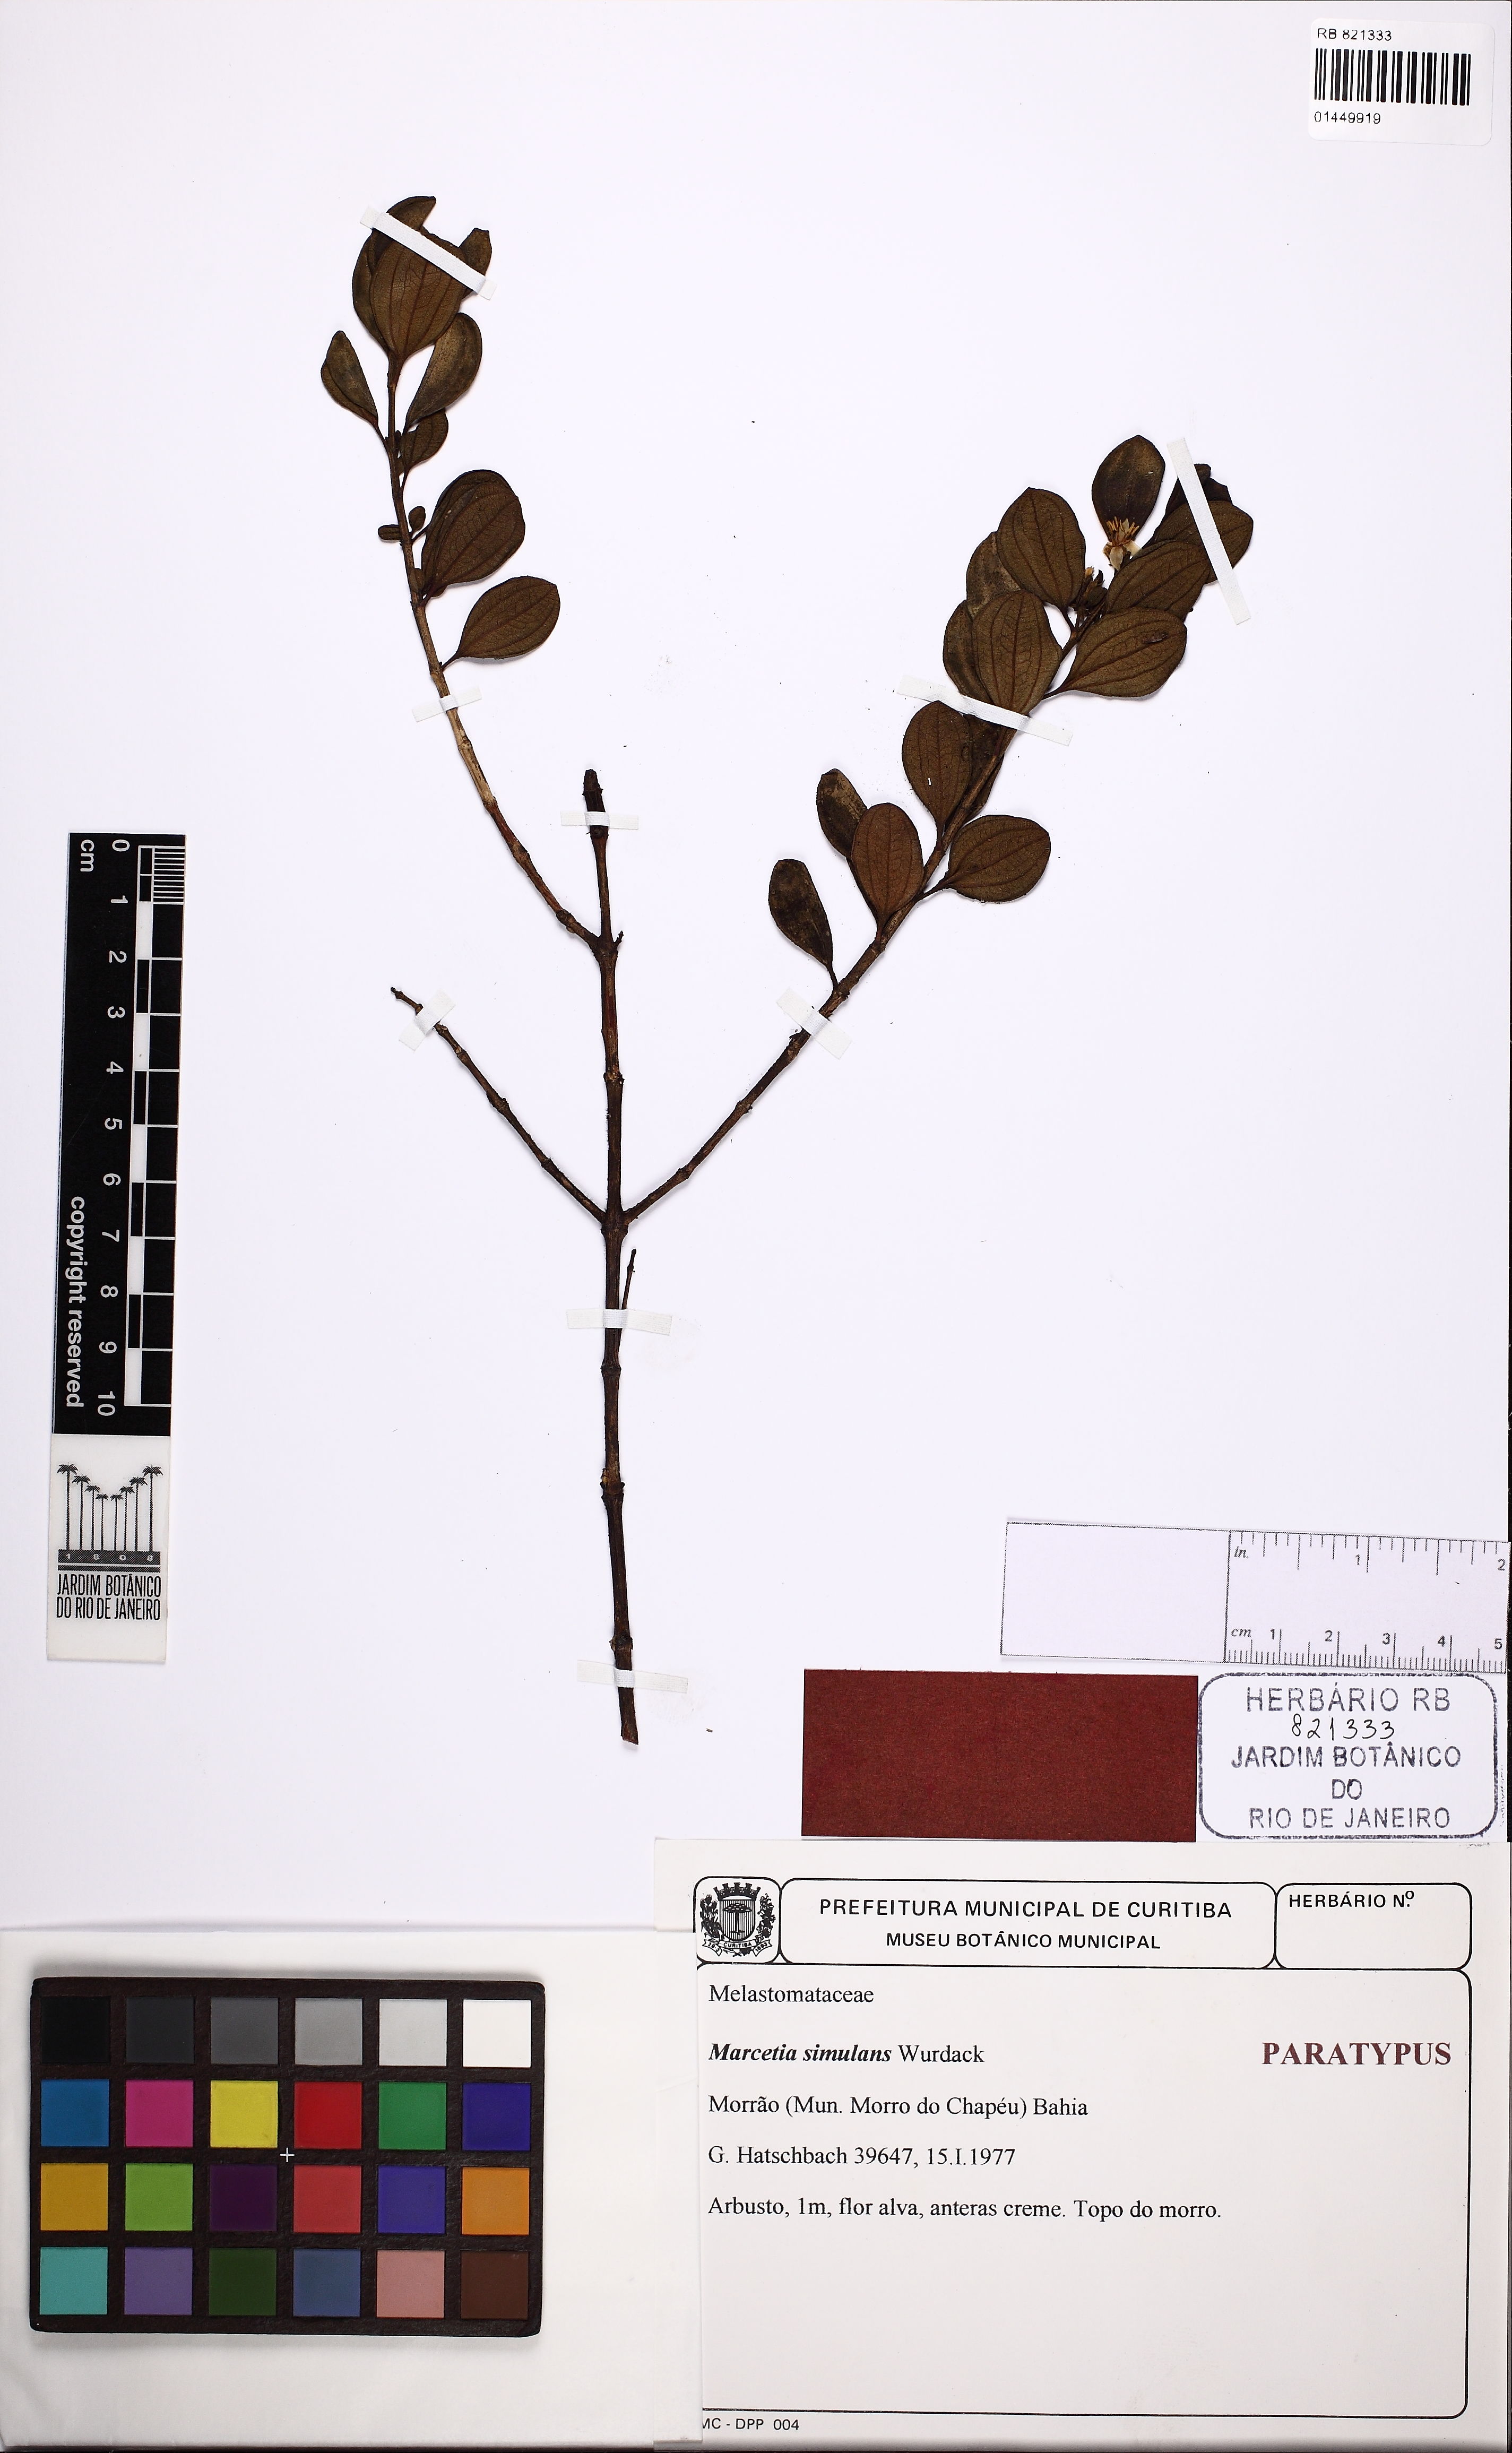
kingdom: Plantae
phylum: Tracheophyta
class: Magnoliopsida
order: Myrtales
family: Melastomataceae
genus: Marcetia
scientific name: Marcetia bahiensis
